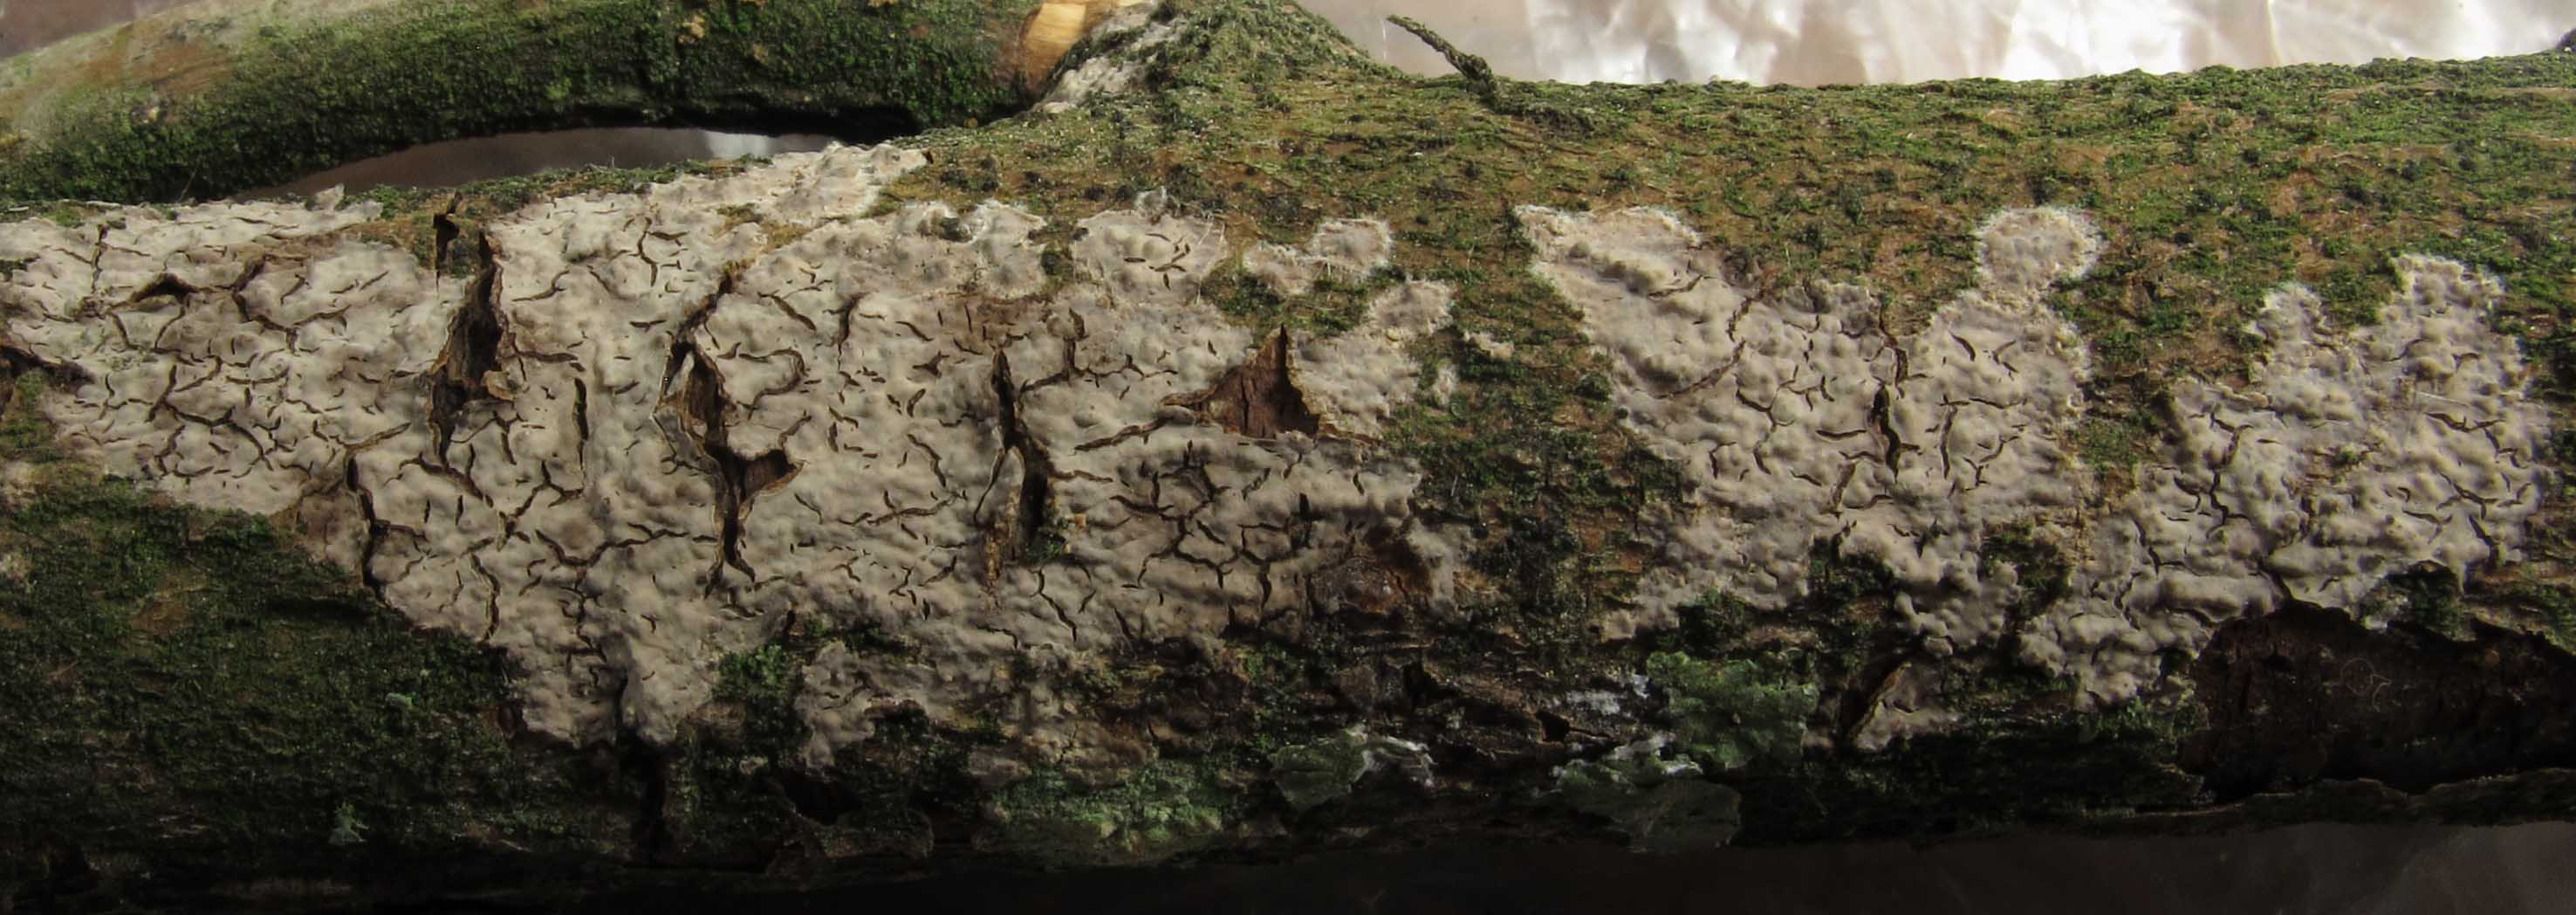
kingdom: Fungi
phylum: Basidiomycota
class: Agaricomycetes
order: Russulales
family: Peniophoraceae
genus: Peniophora
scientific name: Peniophora violaceolivida
